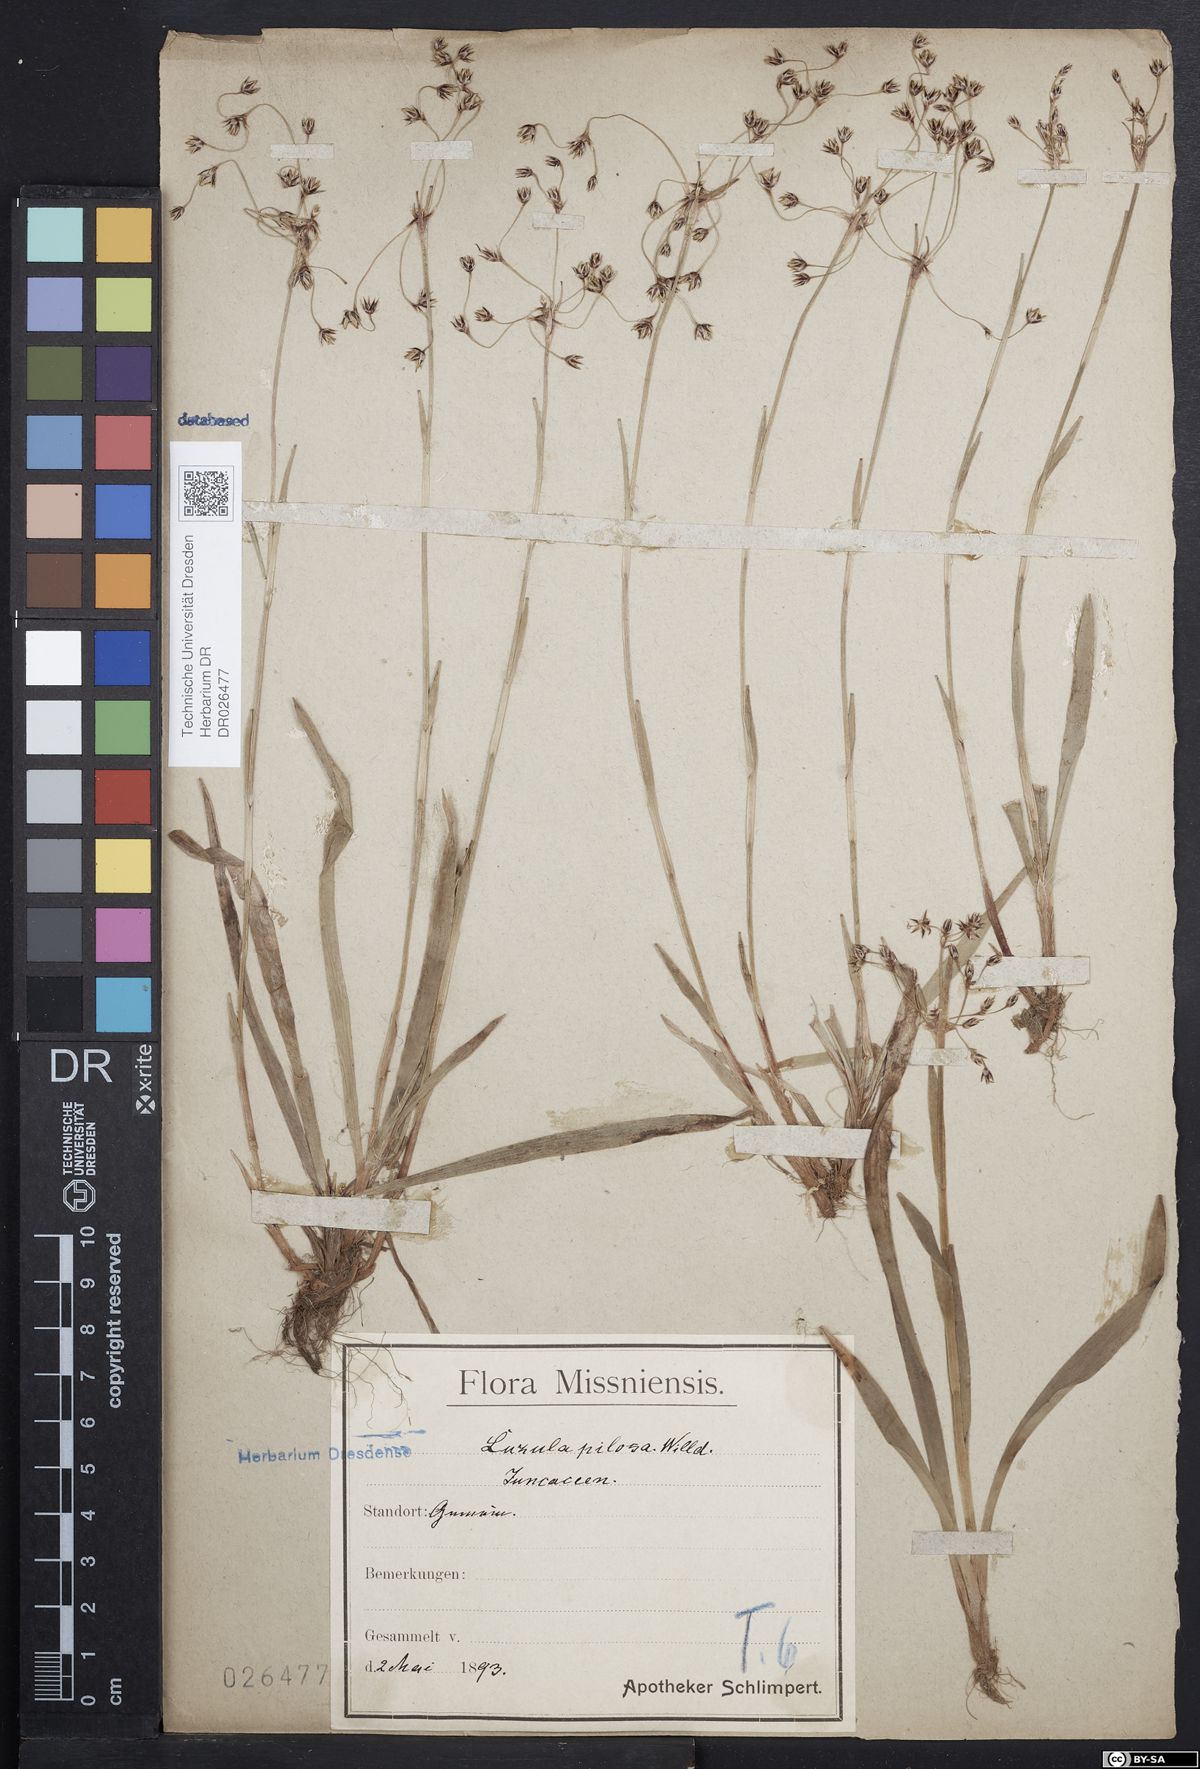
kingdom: Plantae
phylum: Tracheophyta
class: Liliopsida
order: Poales
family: Juncaceae
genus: Luzula
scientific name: Luzula pilosa
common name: Hairy wood-rush
